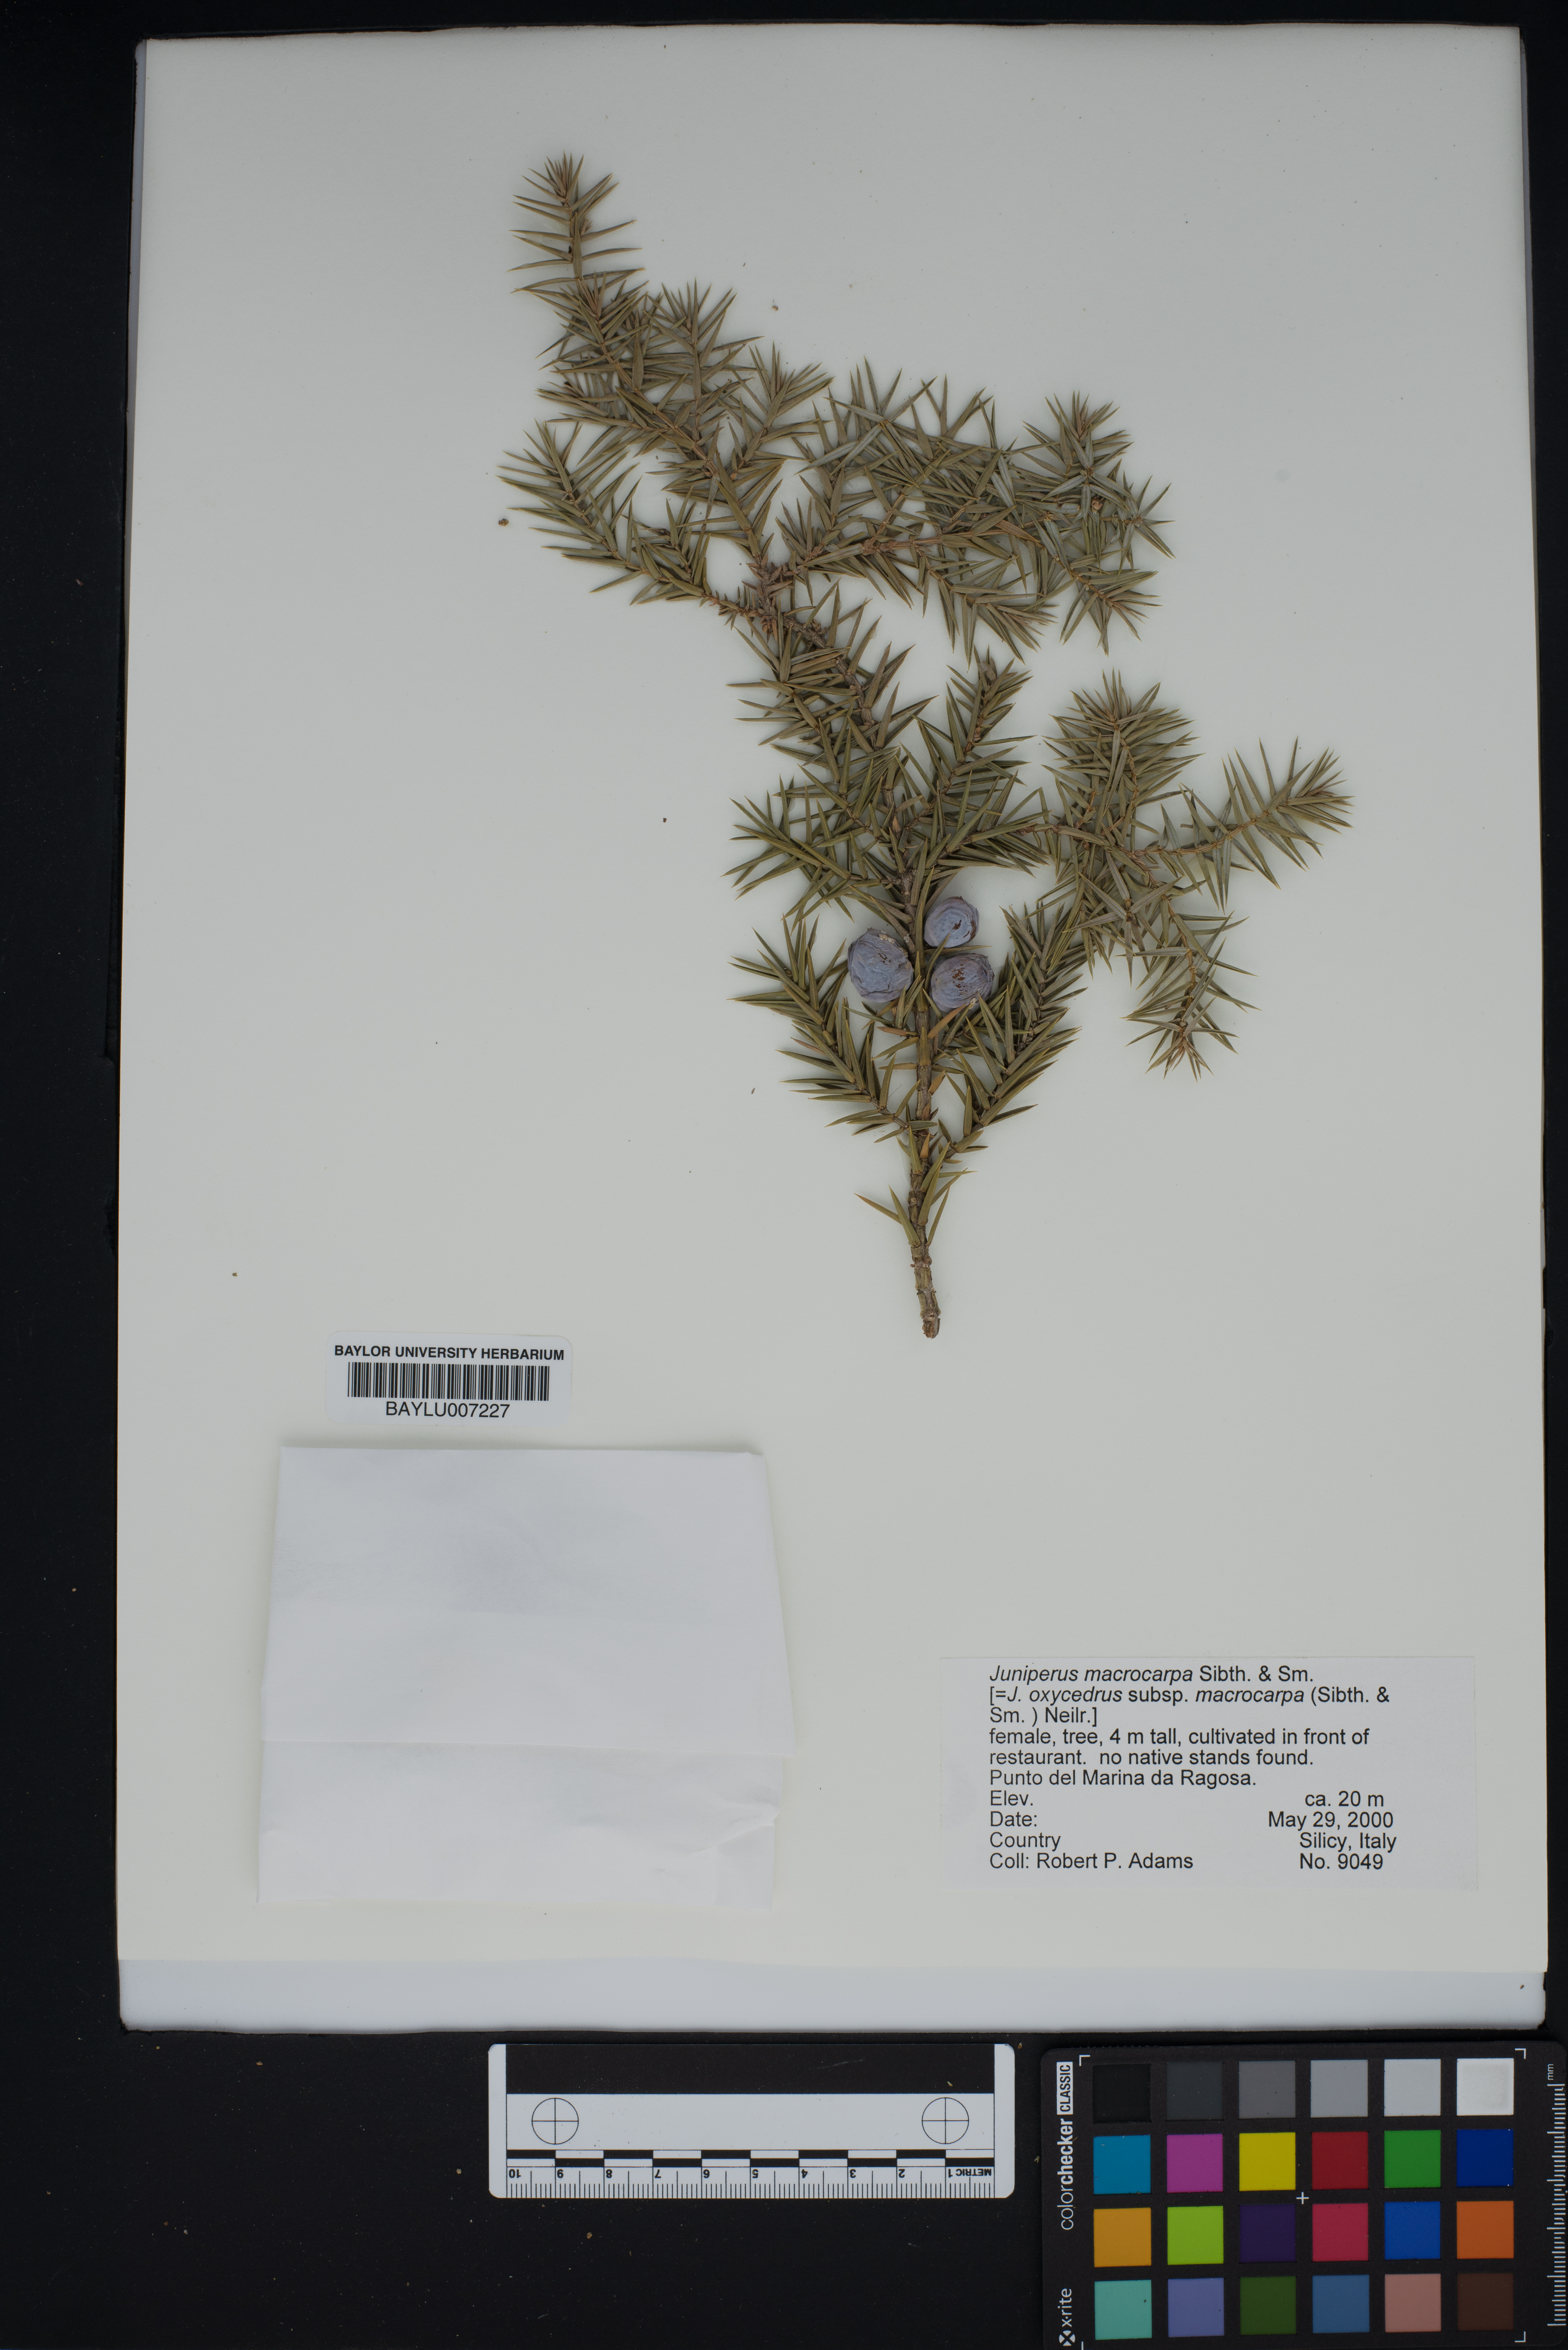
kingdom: Plantae
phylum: Tracheophyta
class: Pinopsida
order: Pinales
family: Cupressaceae
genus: Juniperus
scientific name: Juniperus oxycedrus
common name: Prickly juniper
